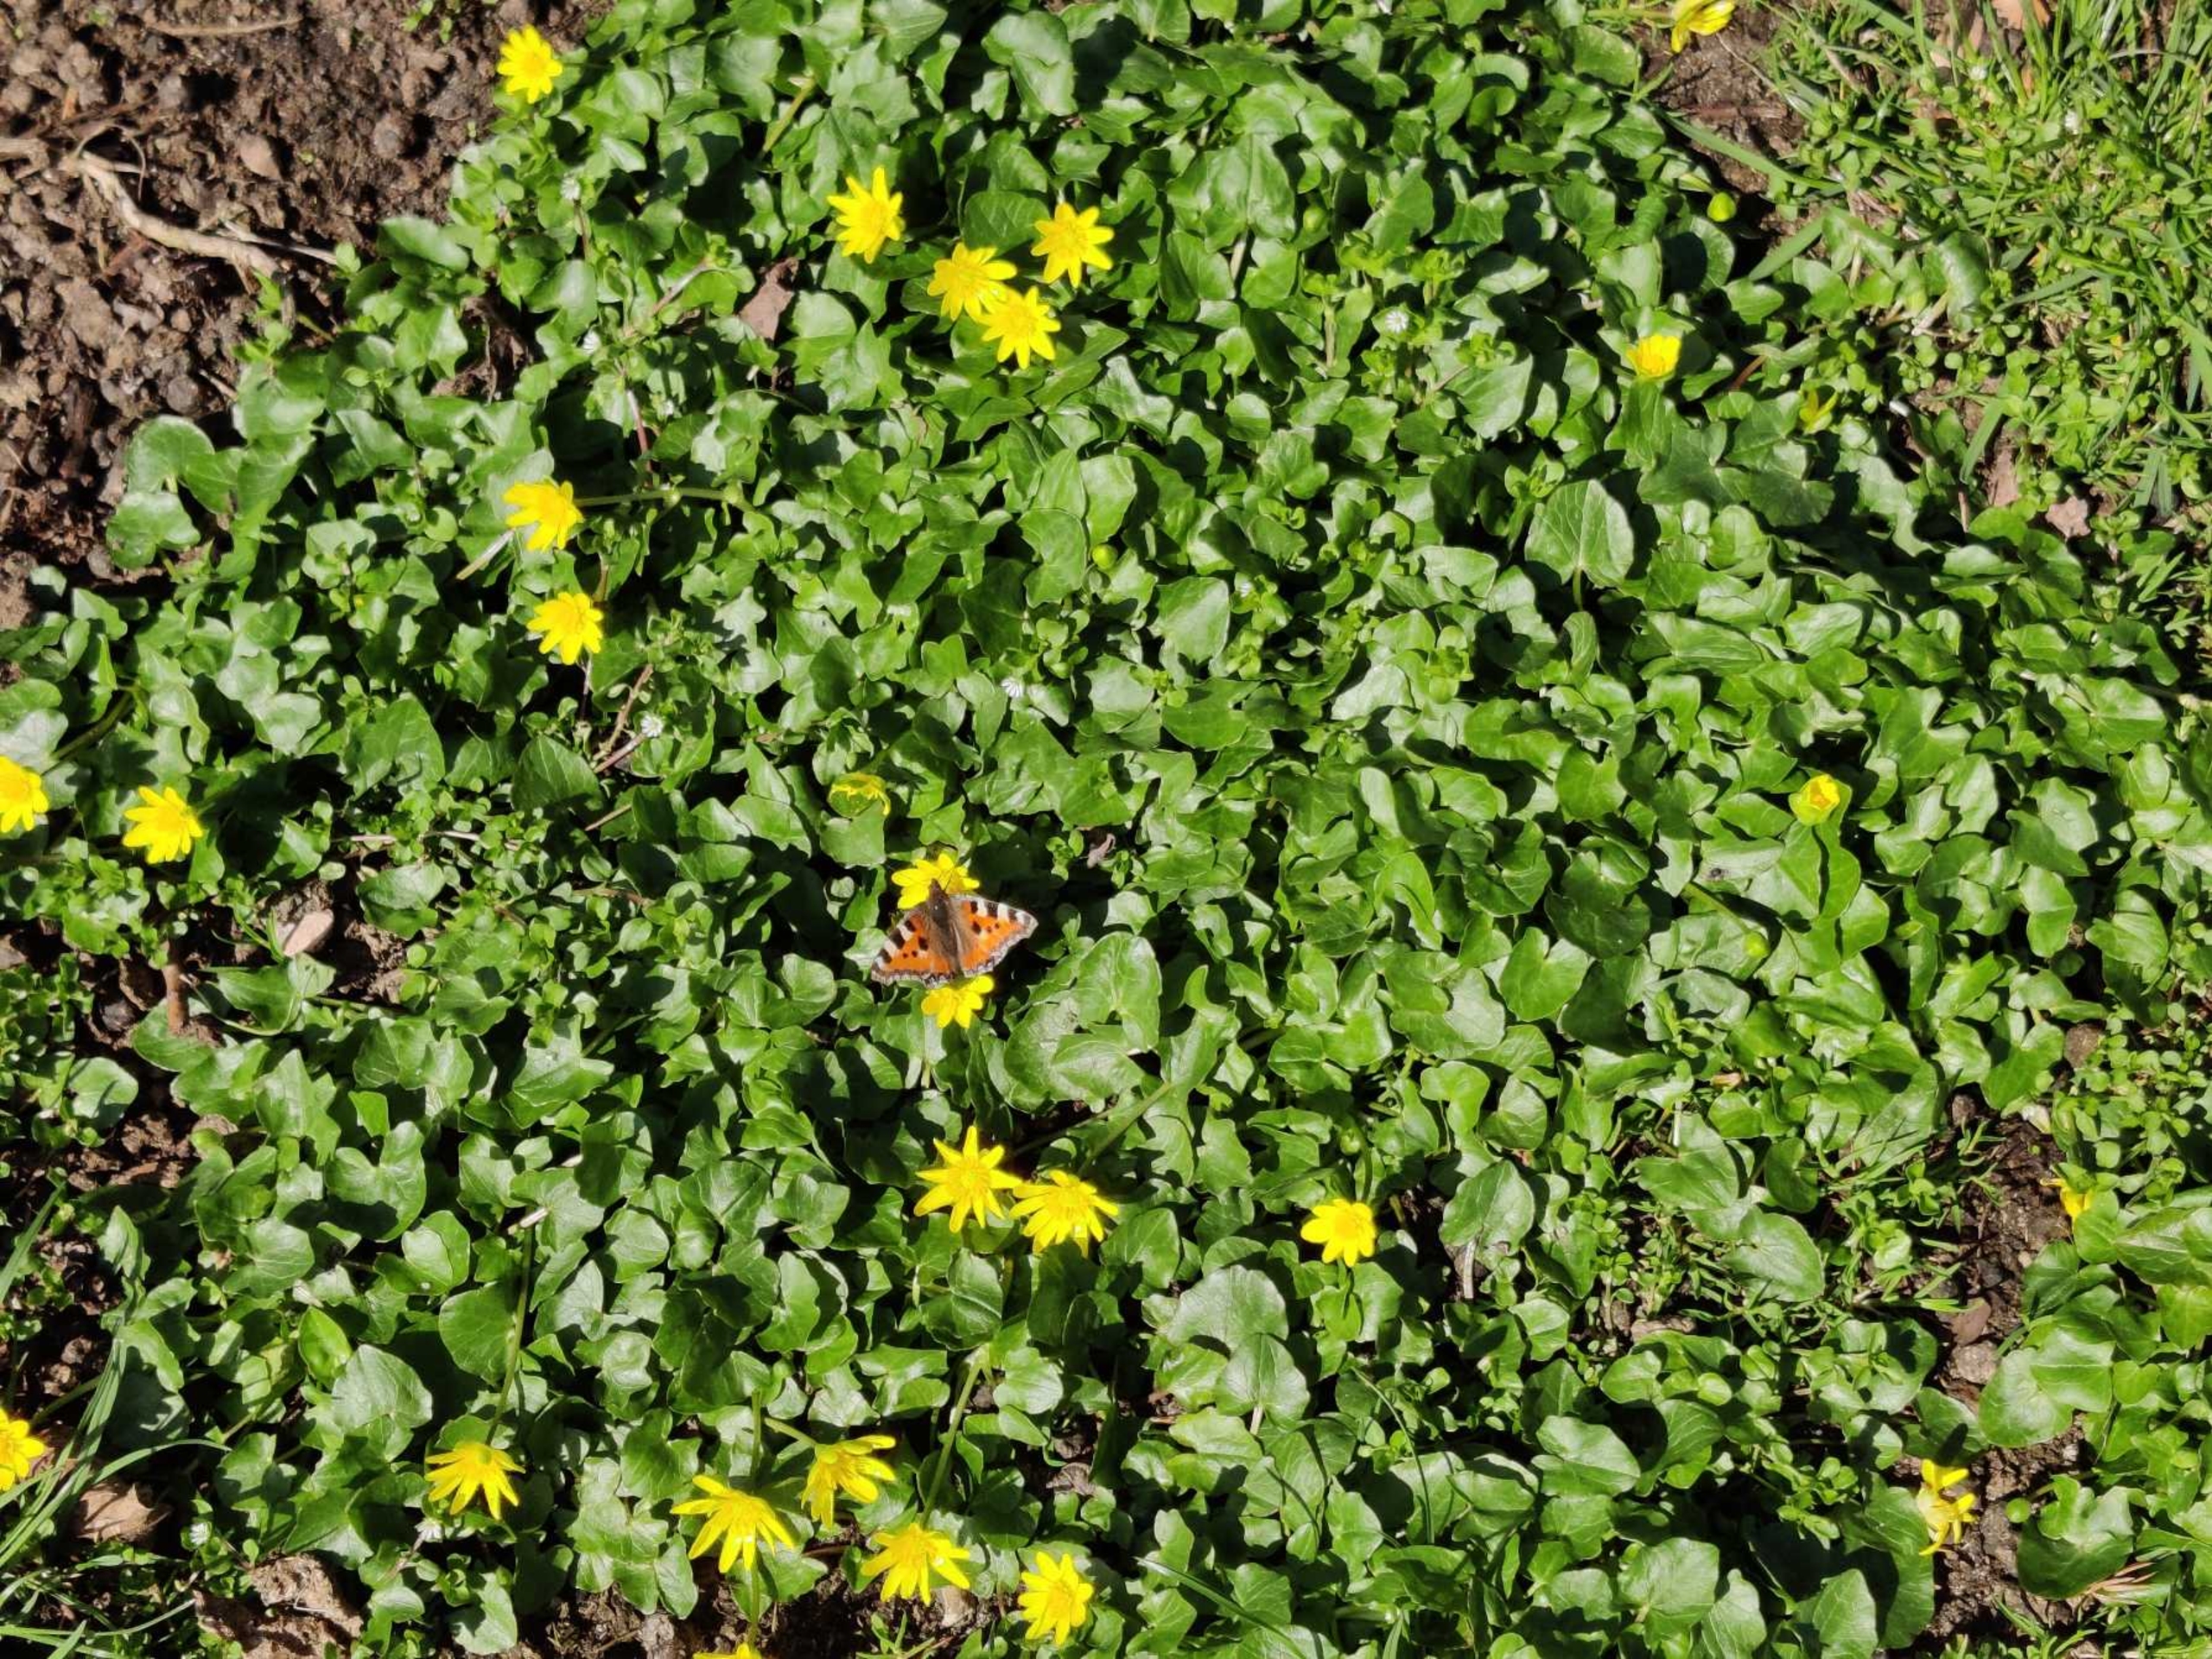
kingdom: Plantae
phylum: Tracheophyta
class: Magnoliopsida
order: Ranunculales
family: Ranunculaceae
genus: Ficaria
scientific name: Ficaria verna
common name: Vorterod
